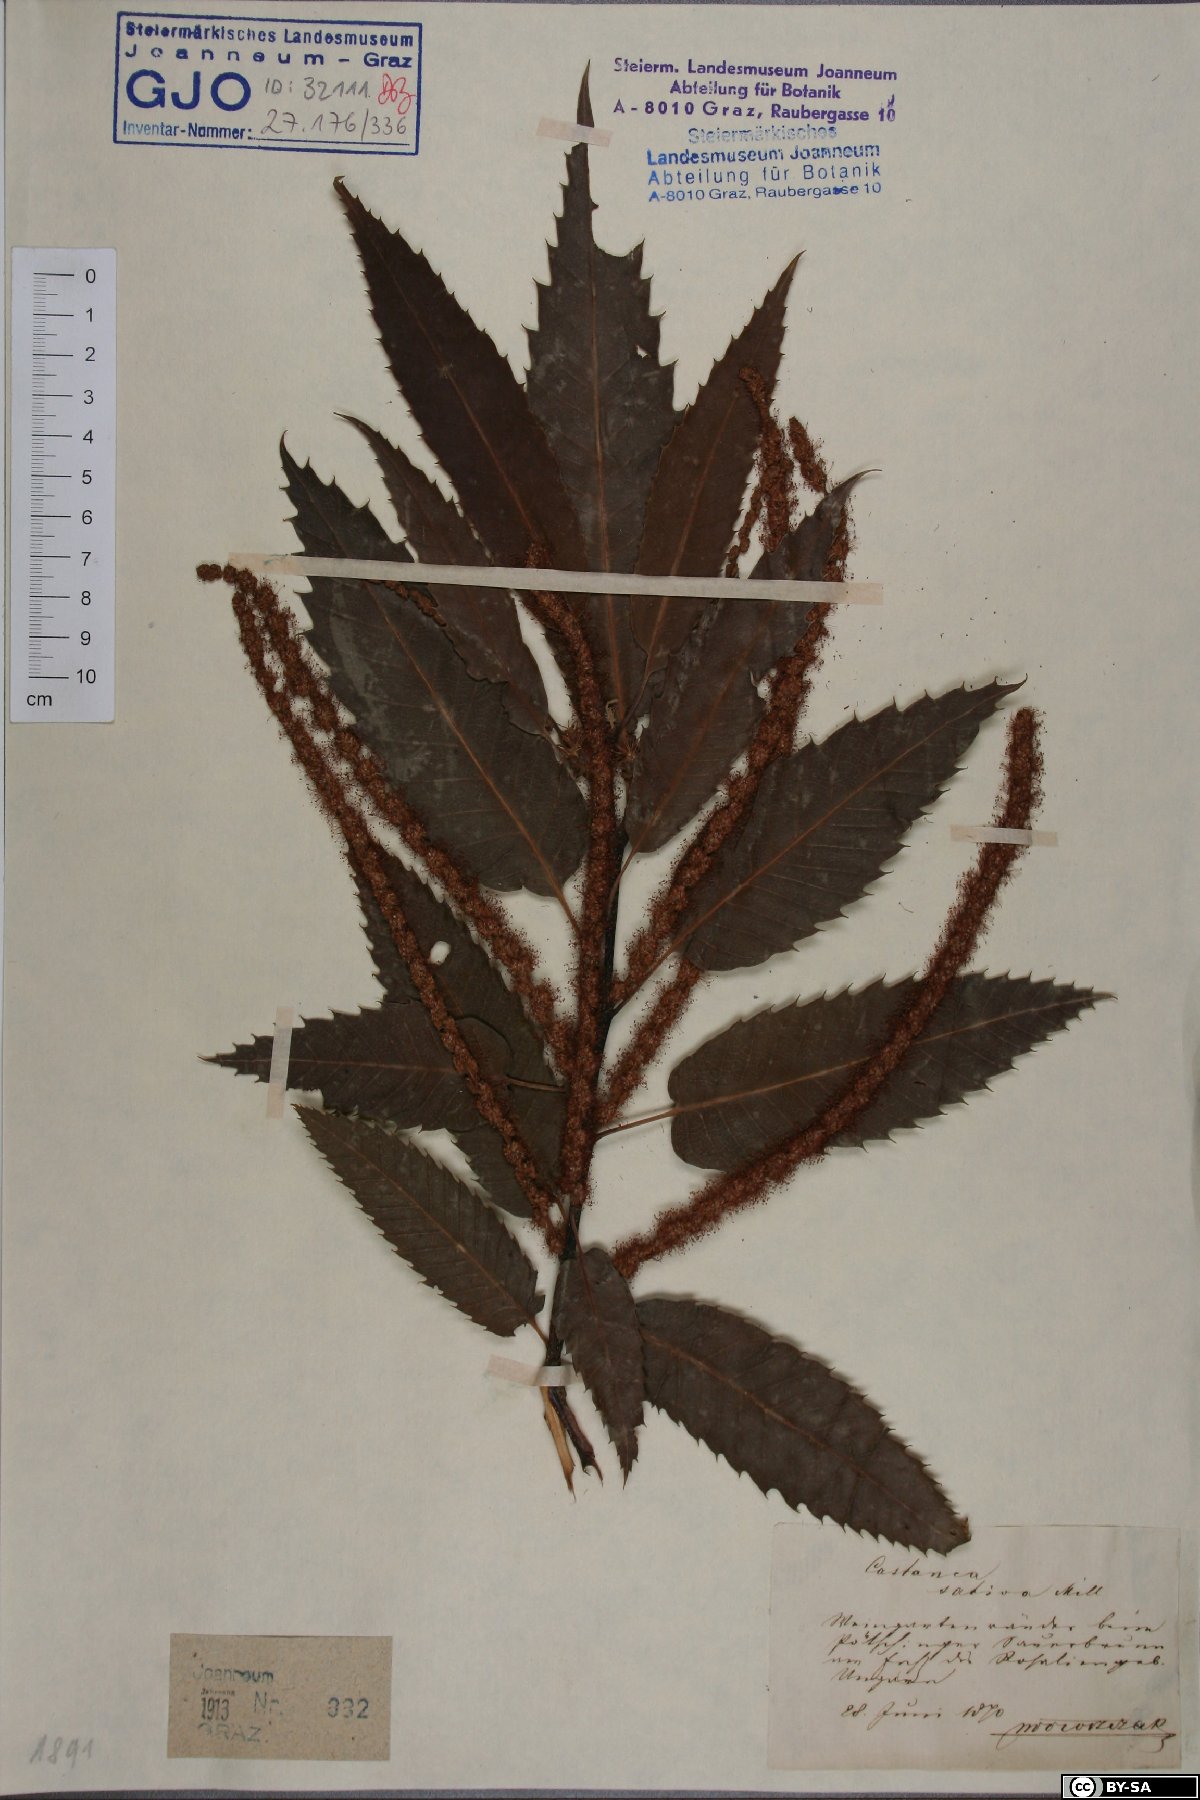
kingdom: Plantae
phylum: Tracheophyta
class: Magnoliopsida
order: Fagales
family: Fagaceae
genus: Castanea
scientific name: Castanea sativa
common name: Sweet chestnut
